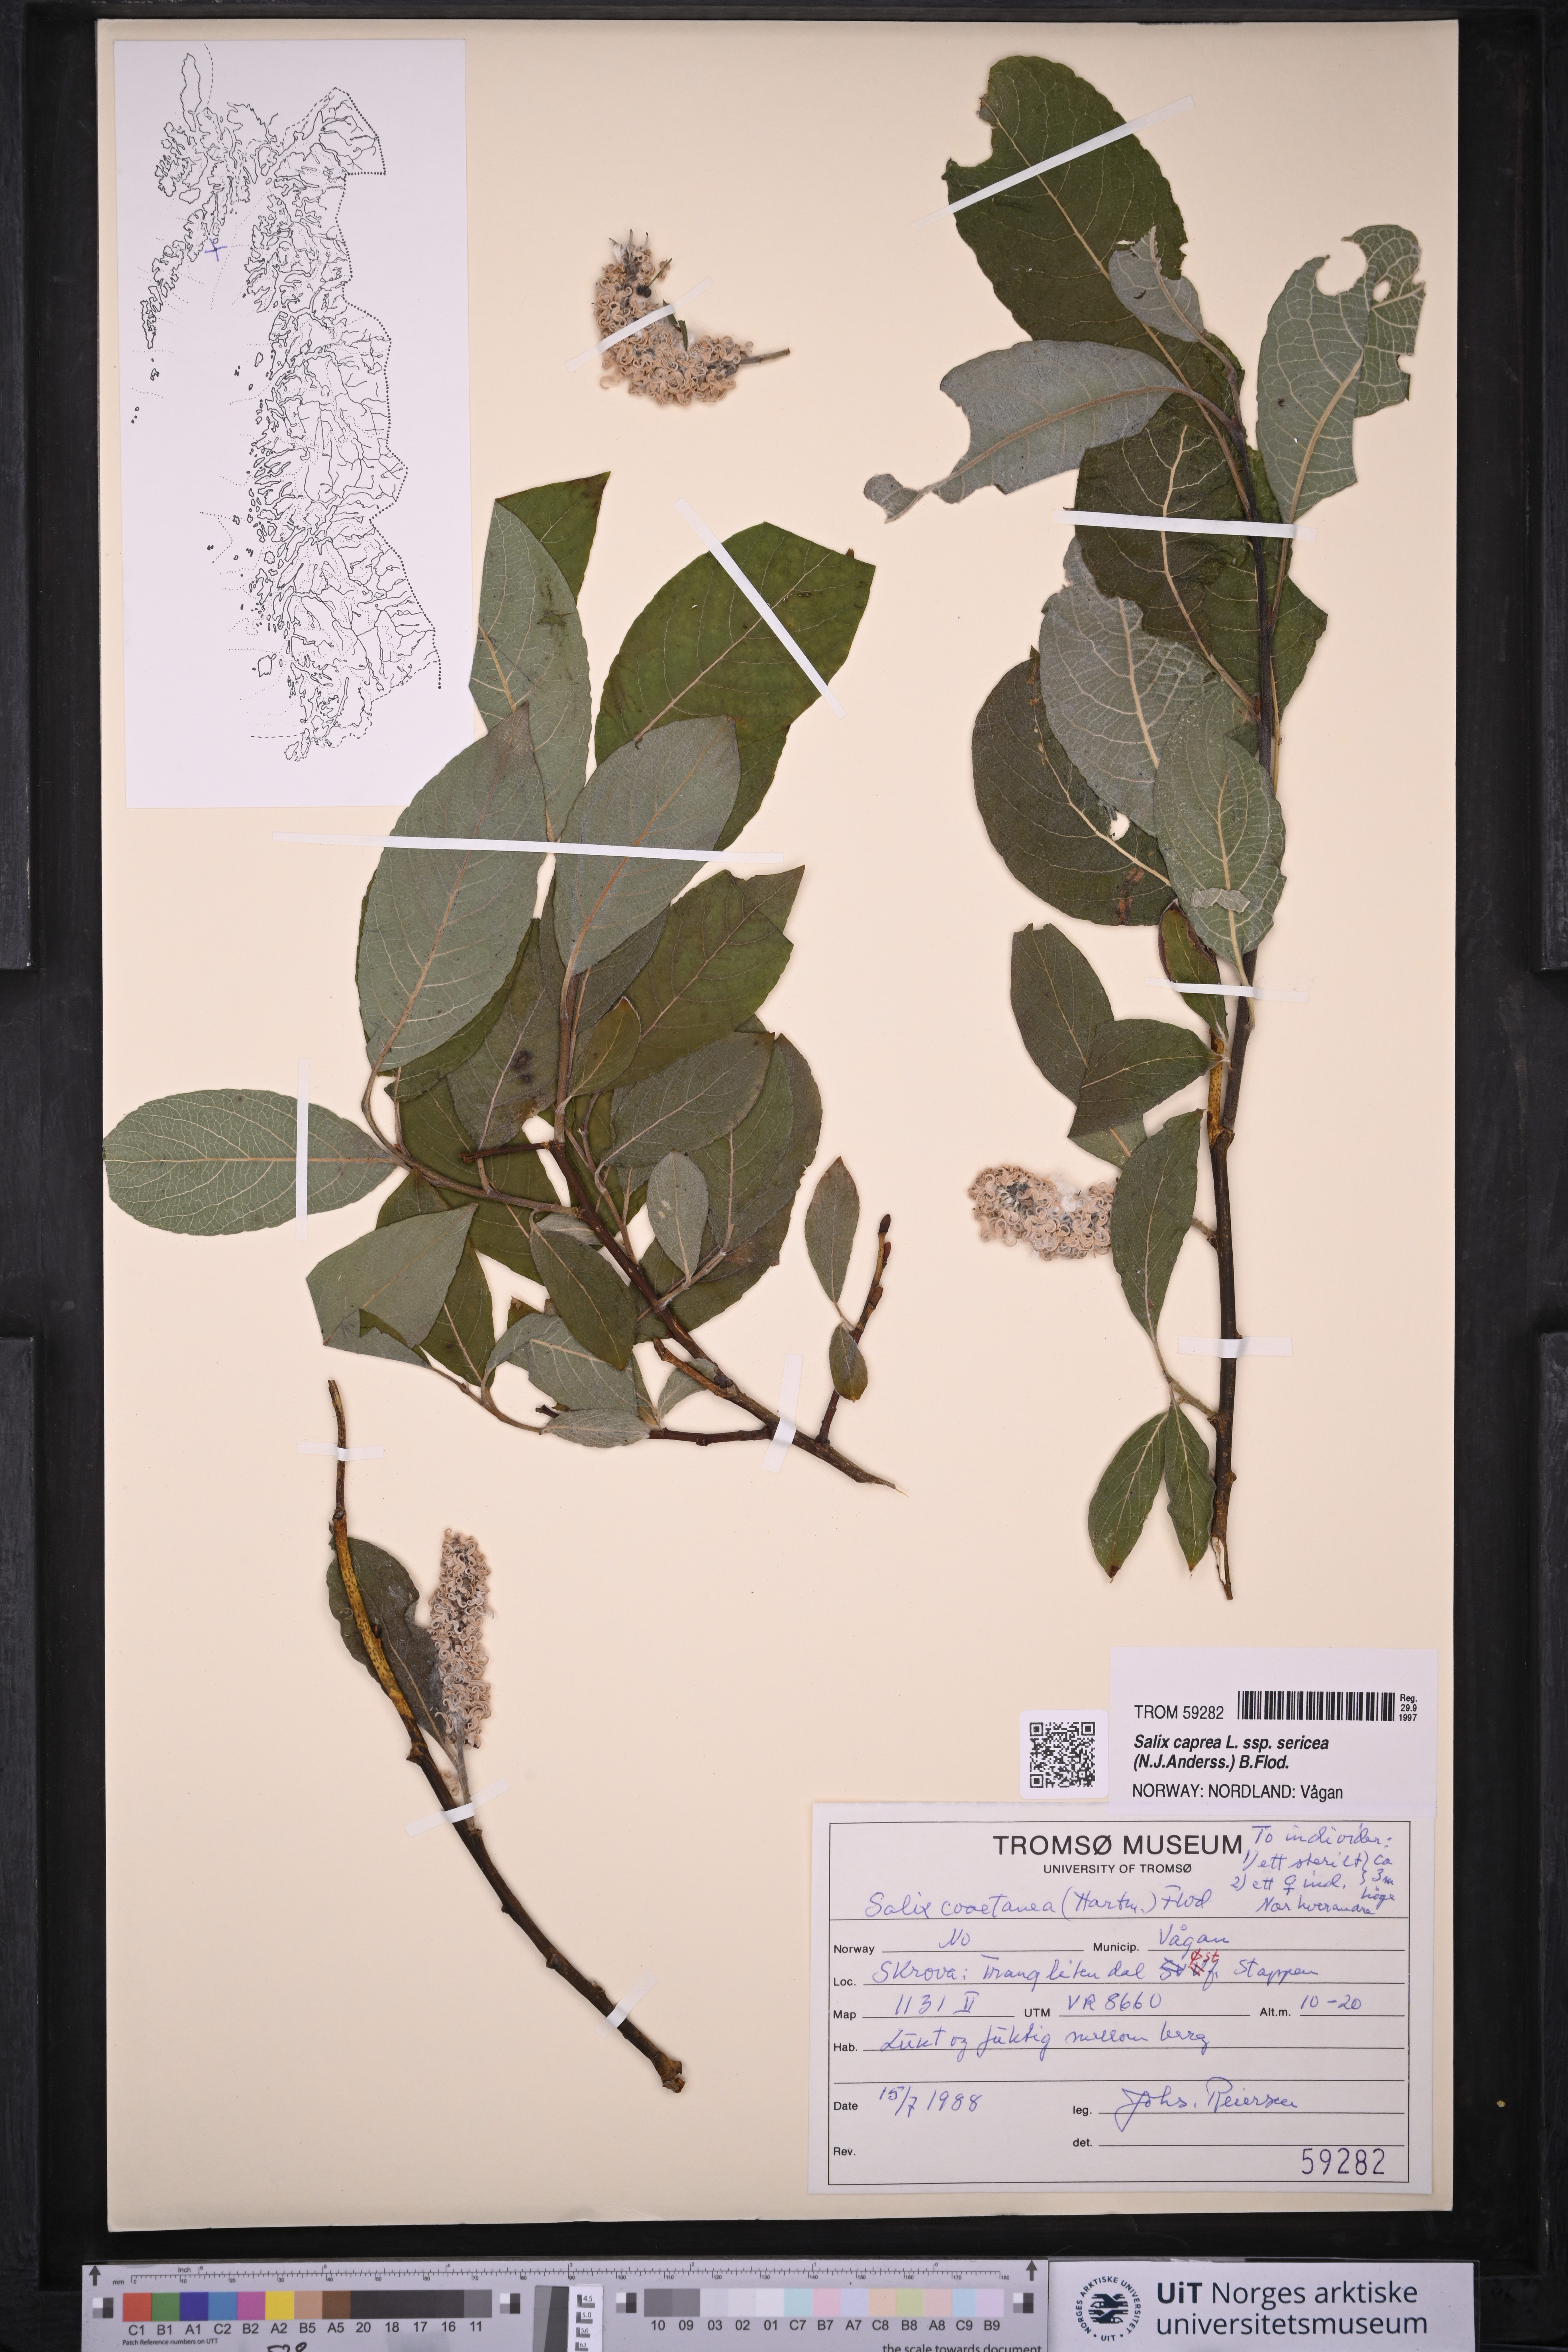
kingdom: Plantae
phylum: Tracheophyta
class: Magnoliopsida
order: Malpighiales
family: Salicaceae
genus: Salix
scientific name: Salix caprea
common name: Goat willow
